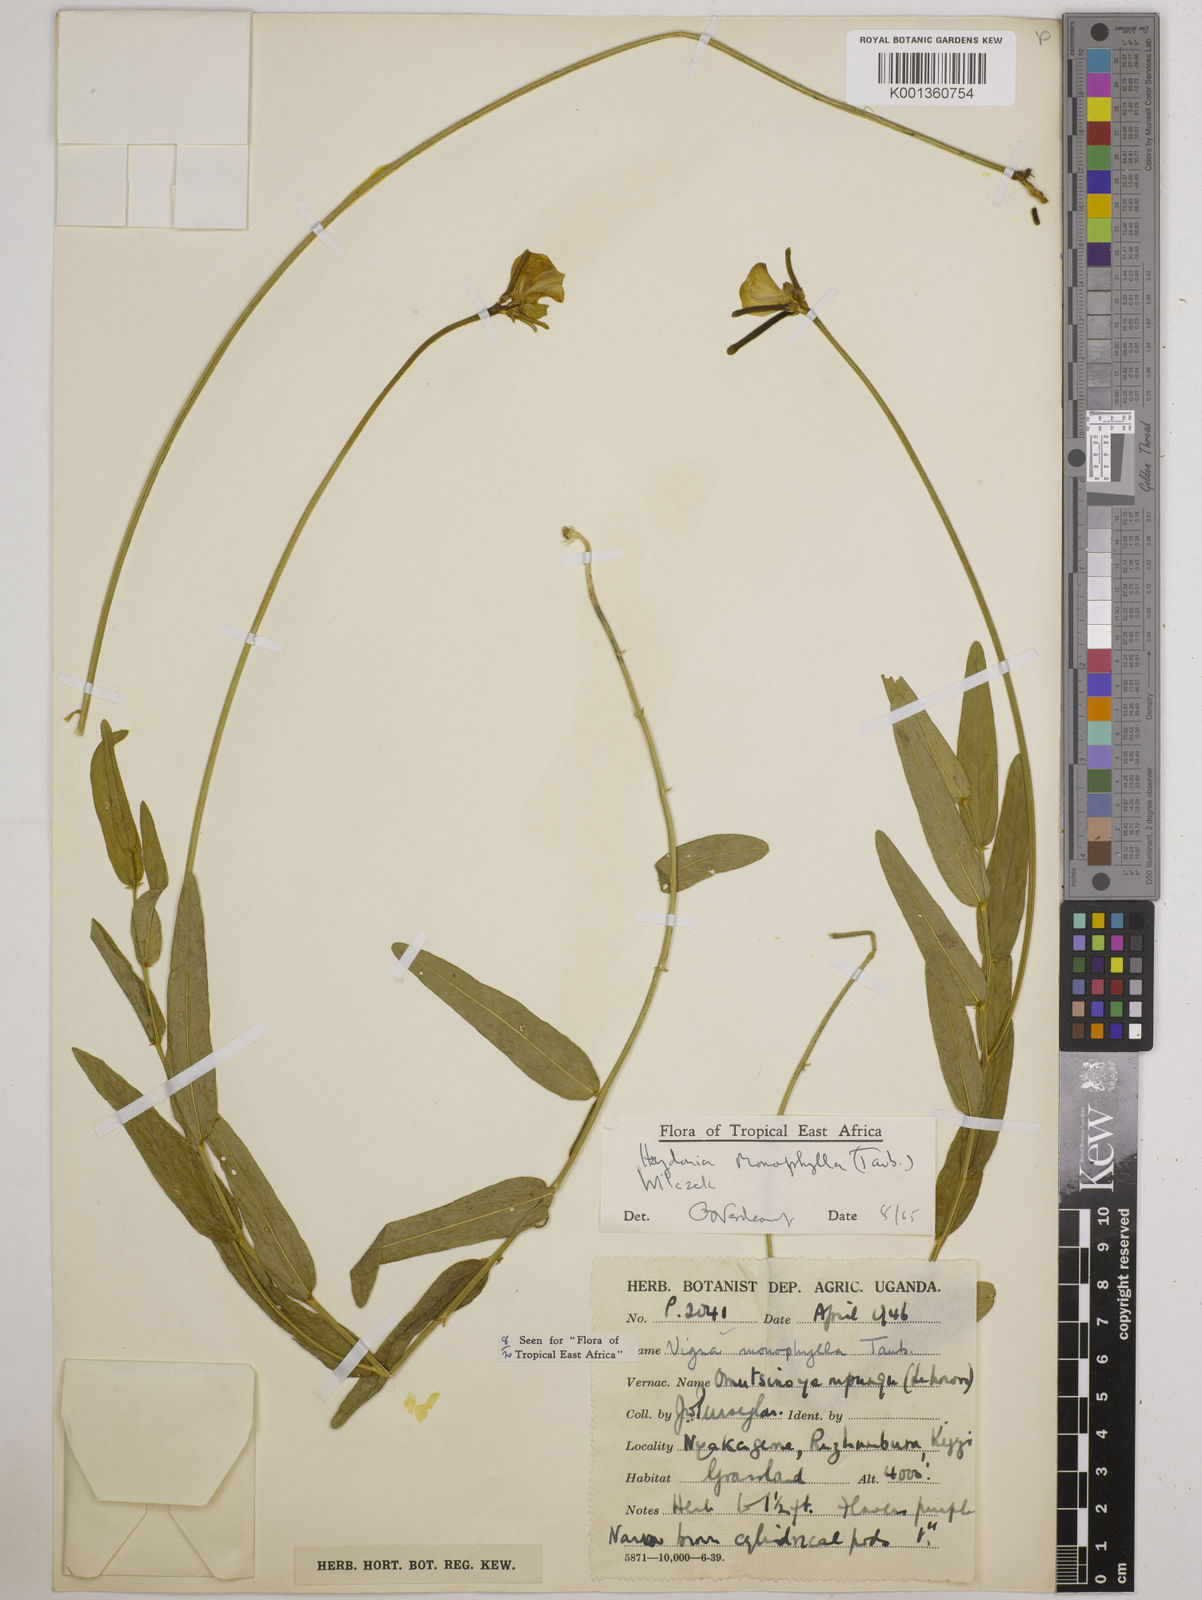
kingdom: Plantae
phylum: Tracheophyta
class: Magnoliopsida
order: Fabales
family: Fabaceae
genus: Vigna
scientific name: Vigna monophylla
